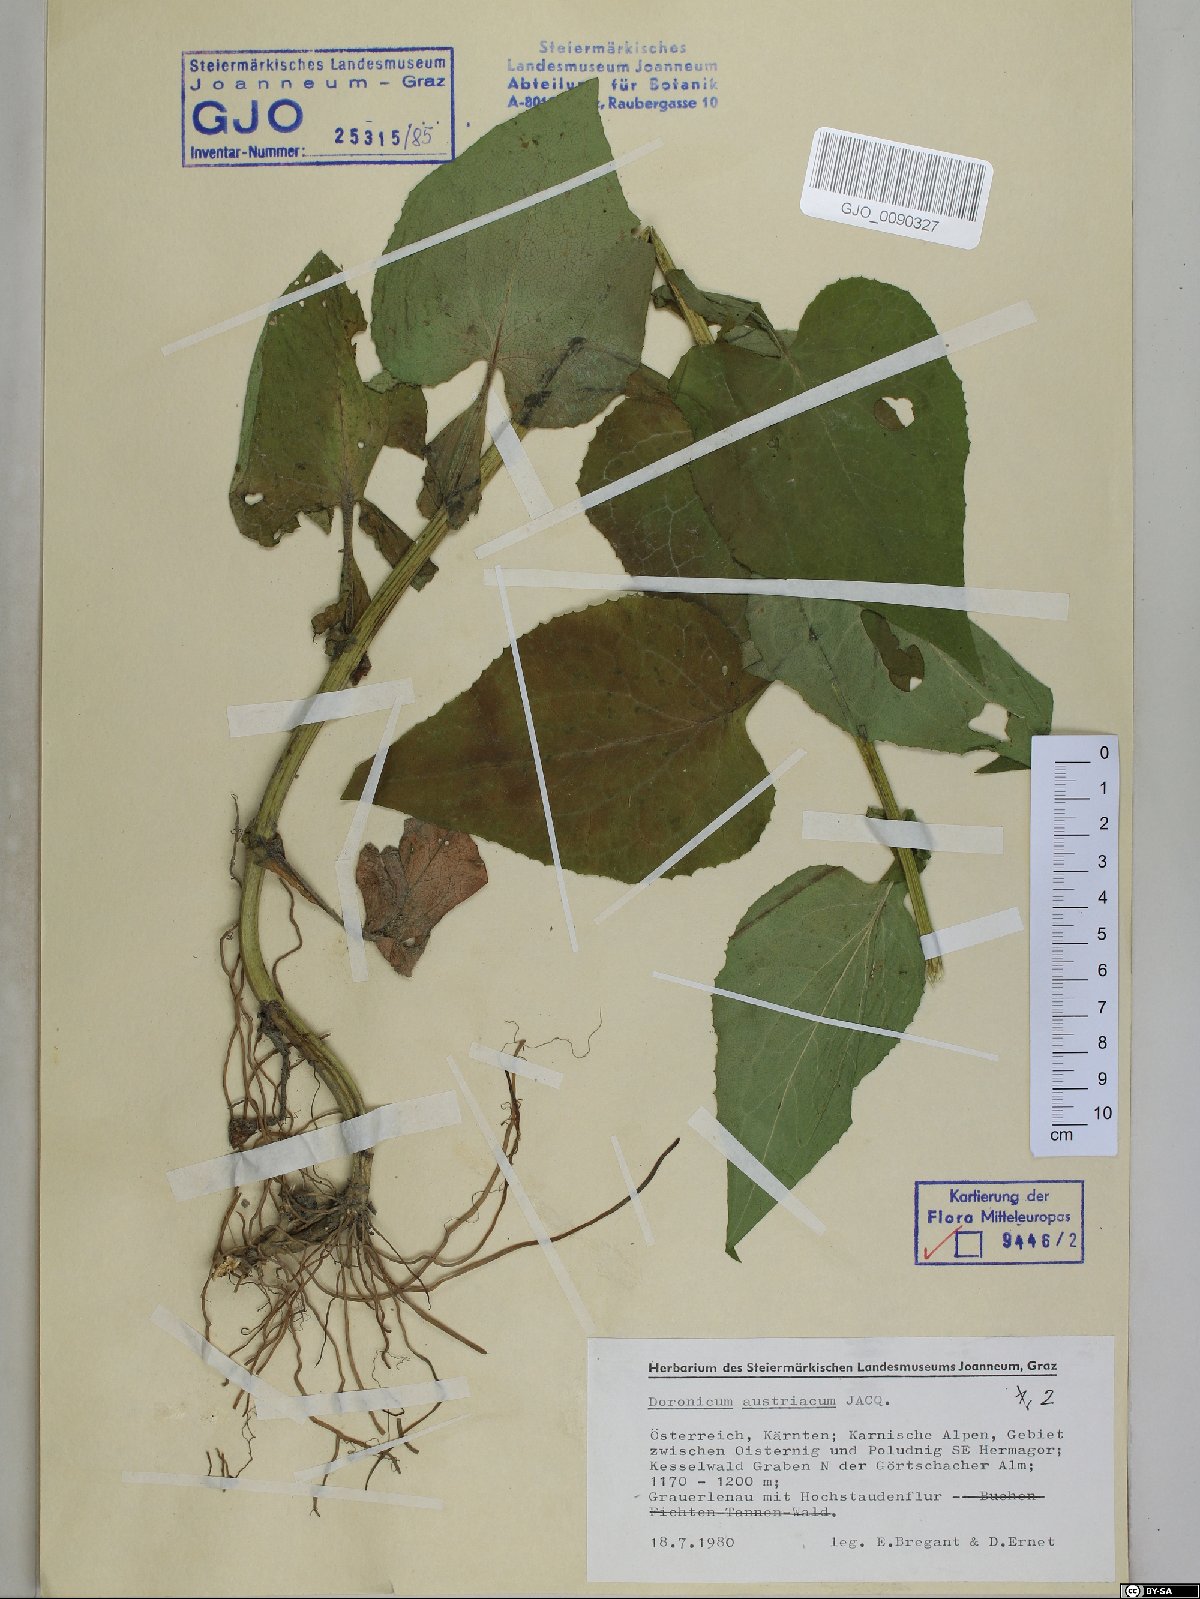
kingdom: Plantae
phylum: Tracheophyta
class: Magnoliopsida
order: Asterales
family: Asteraceae
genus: Doronicum
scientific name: Doronicum austriacum
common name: Austrian leopard's-bane
